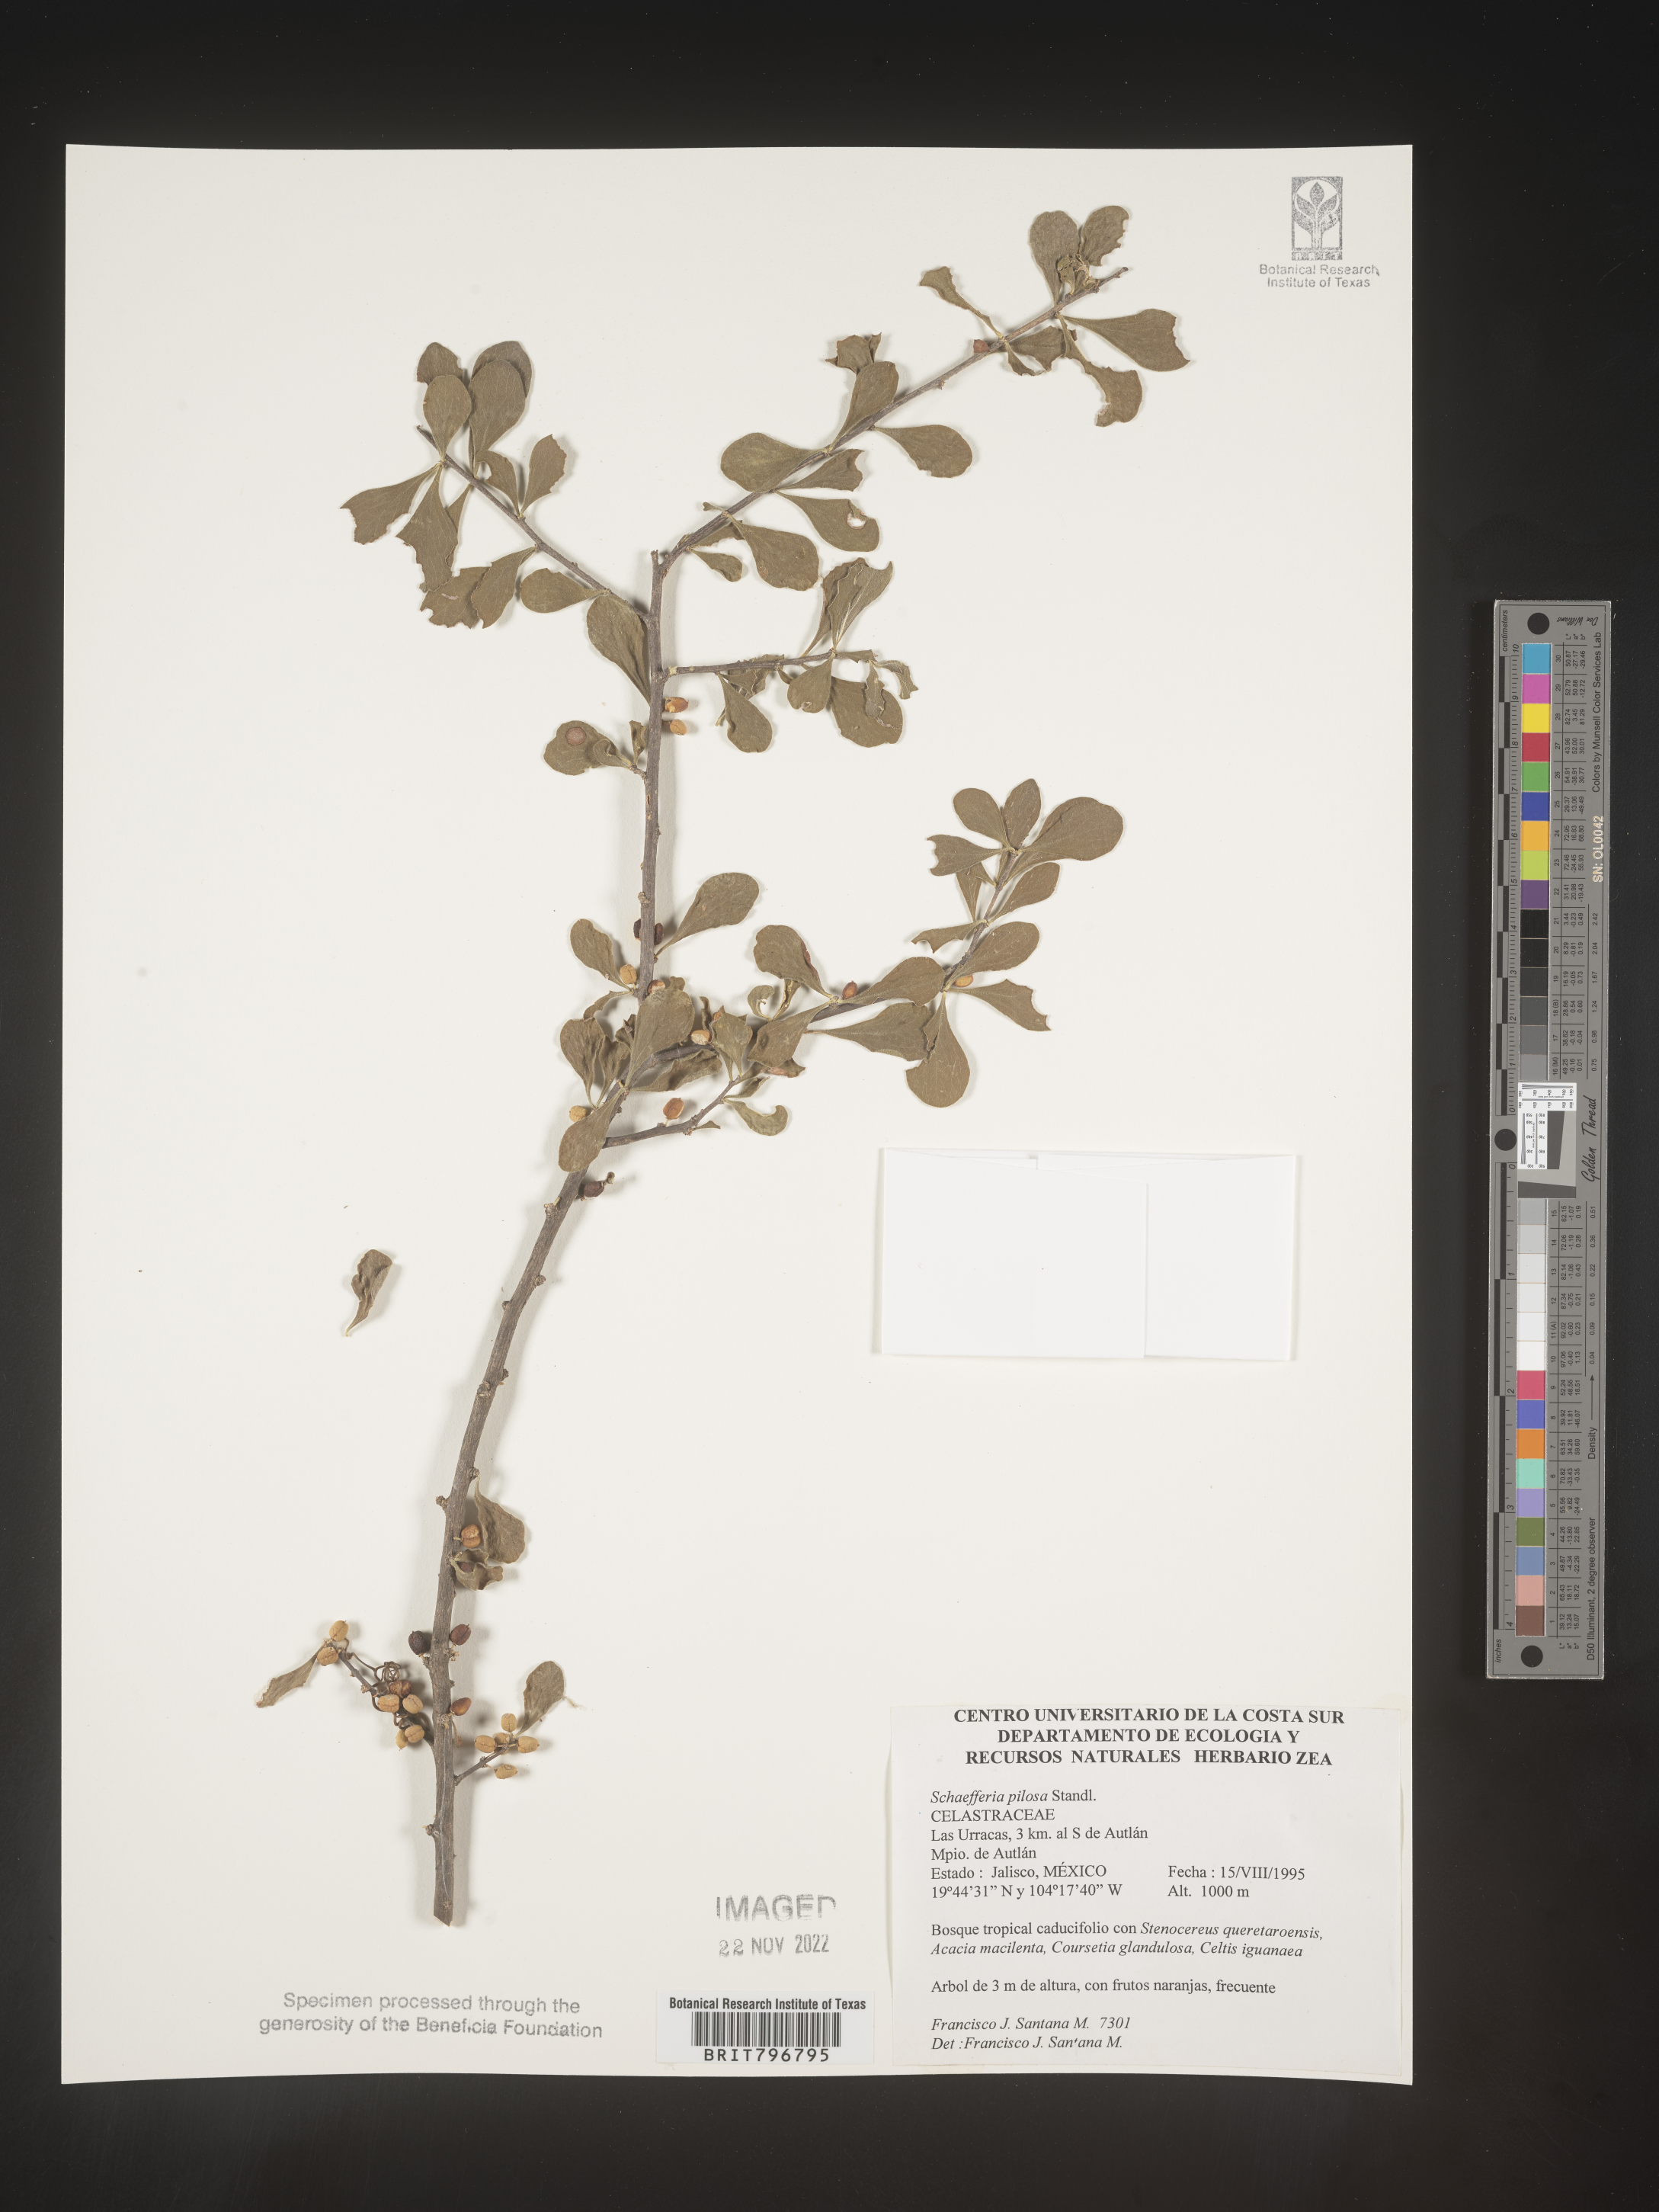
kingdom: Plantae
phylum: Tracheophyta
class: Magnoliopsida
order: Celastrales
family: Celastraceae
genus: Schaefferia
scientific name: Schaefferia
